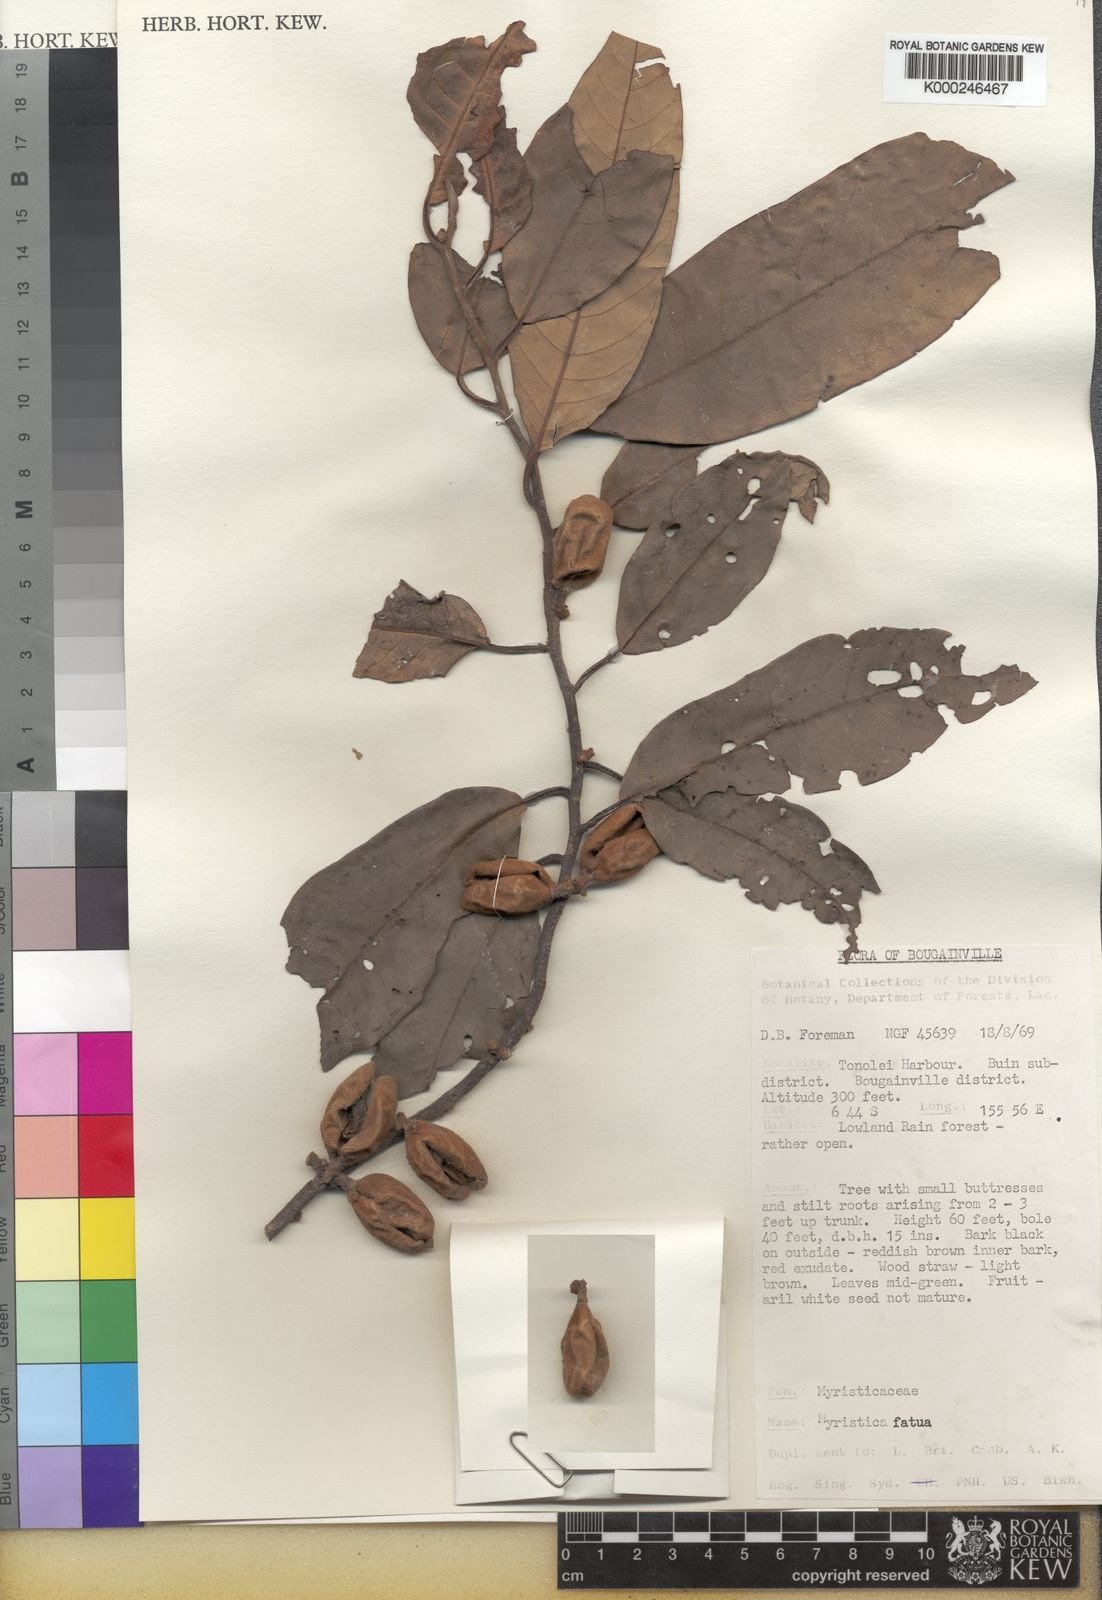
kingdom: Plantae
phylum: Tracheophyta
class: Magnoliopsida
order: Magnoliales
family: Myristicaceae
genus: Myristica
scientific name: Myristica fatua
